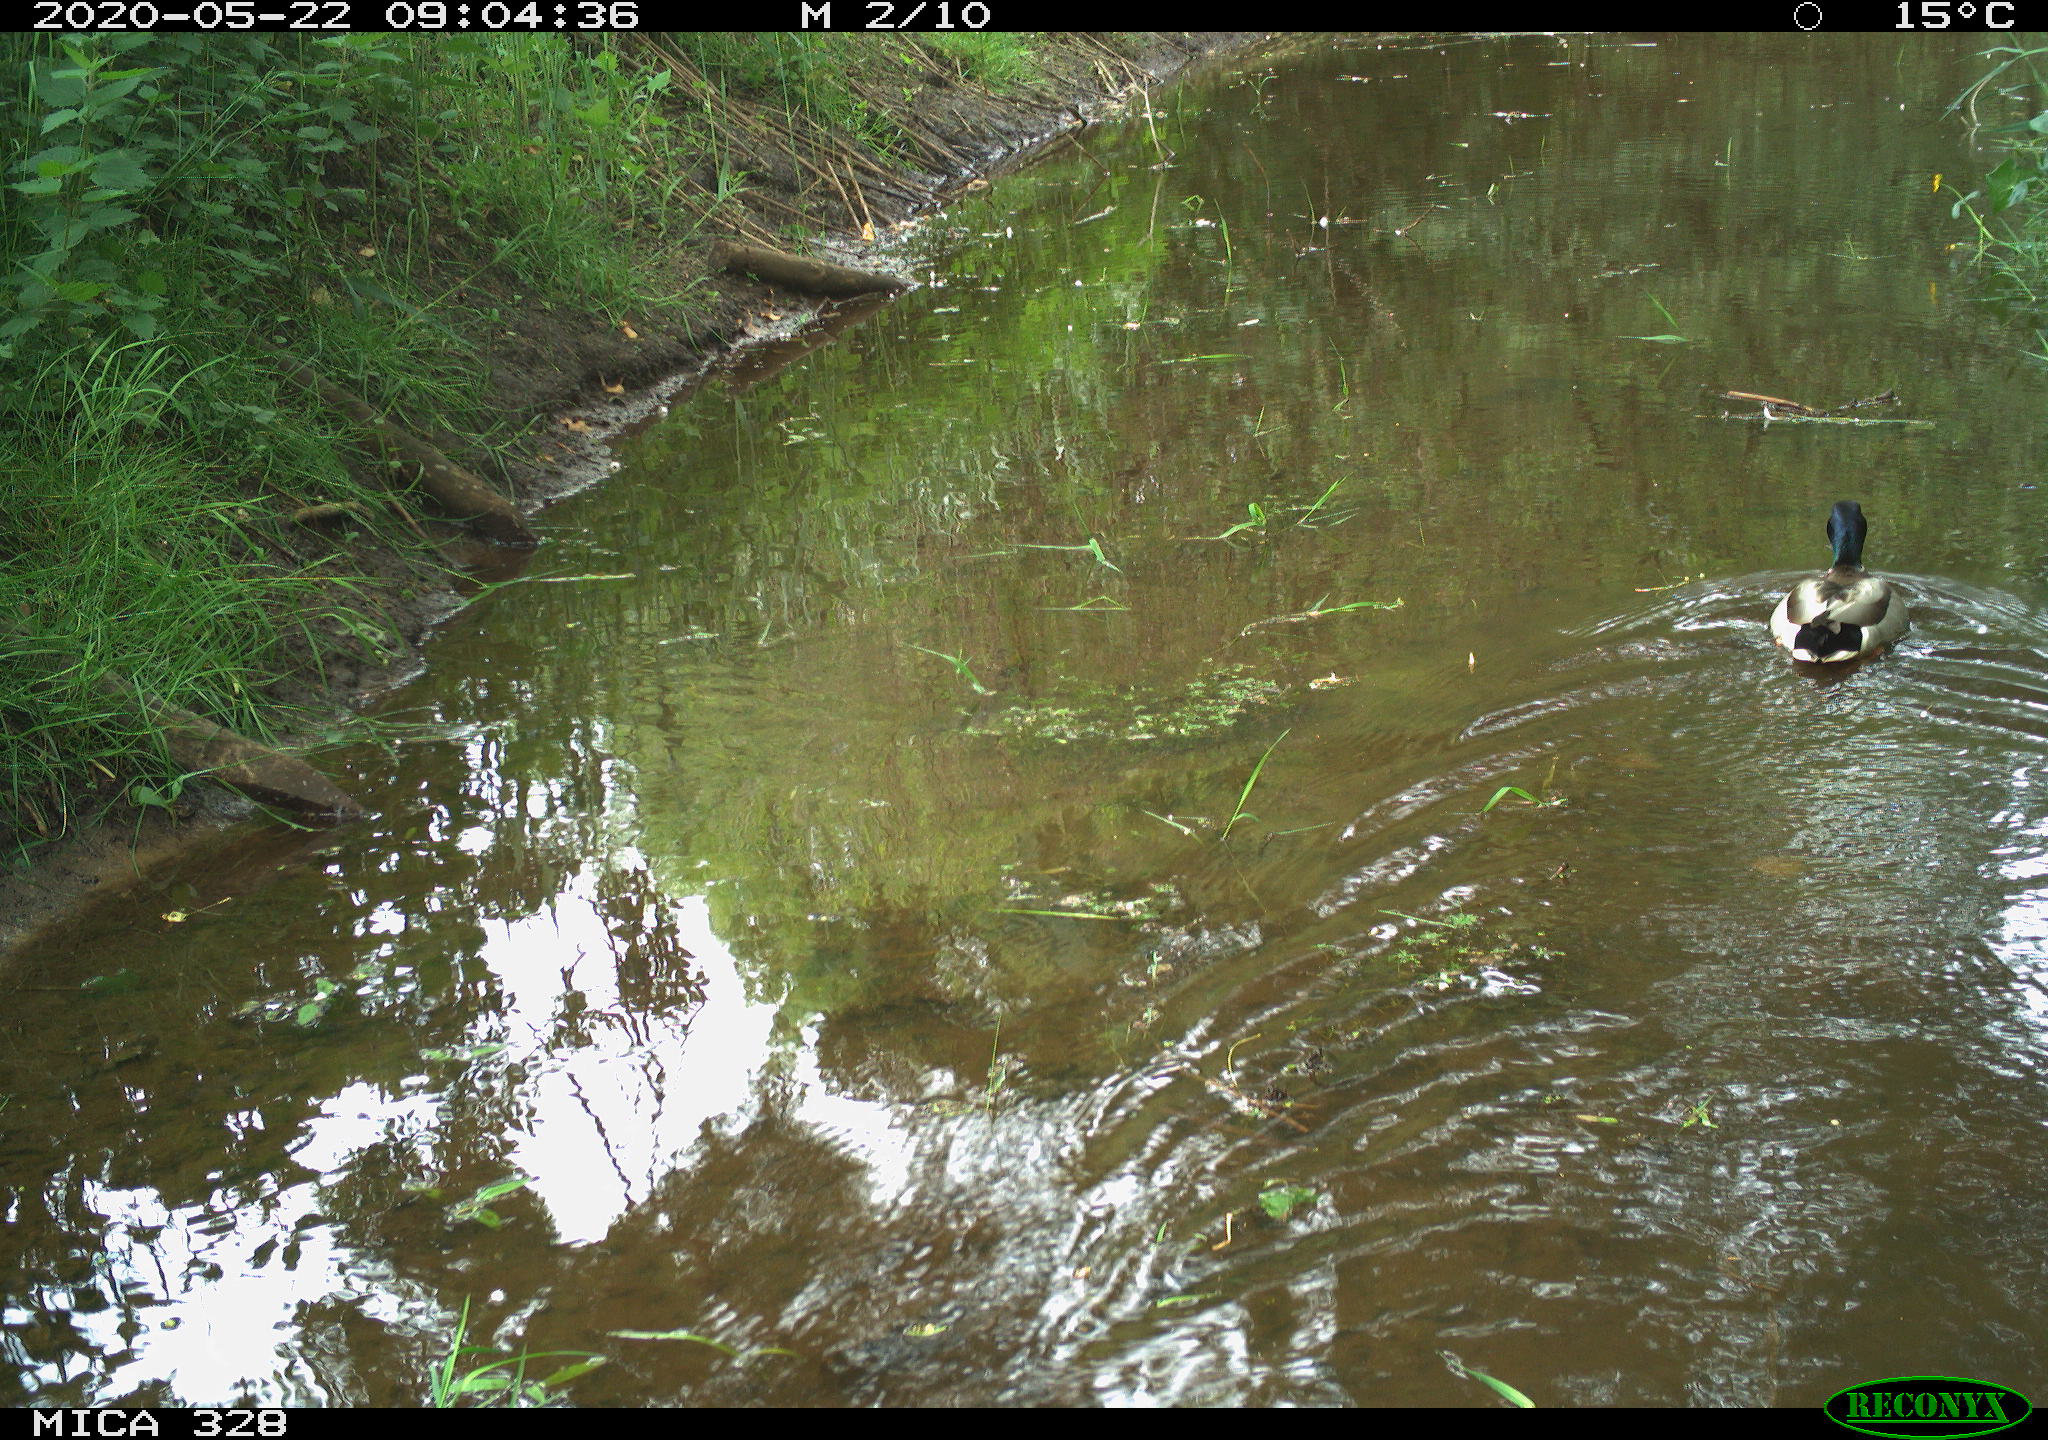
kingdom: Animalia
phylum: Chordata
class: Aves
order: Anseriformes
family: Anatidae
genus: Anas
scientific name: Anas platyrhynchos
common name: Mallard
